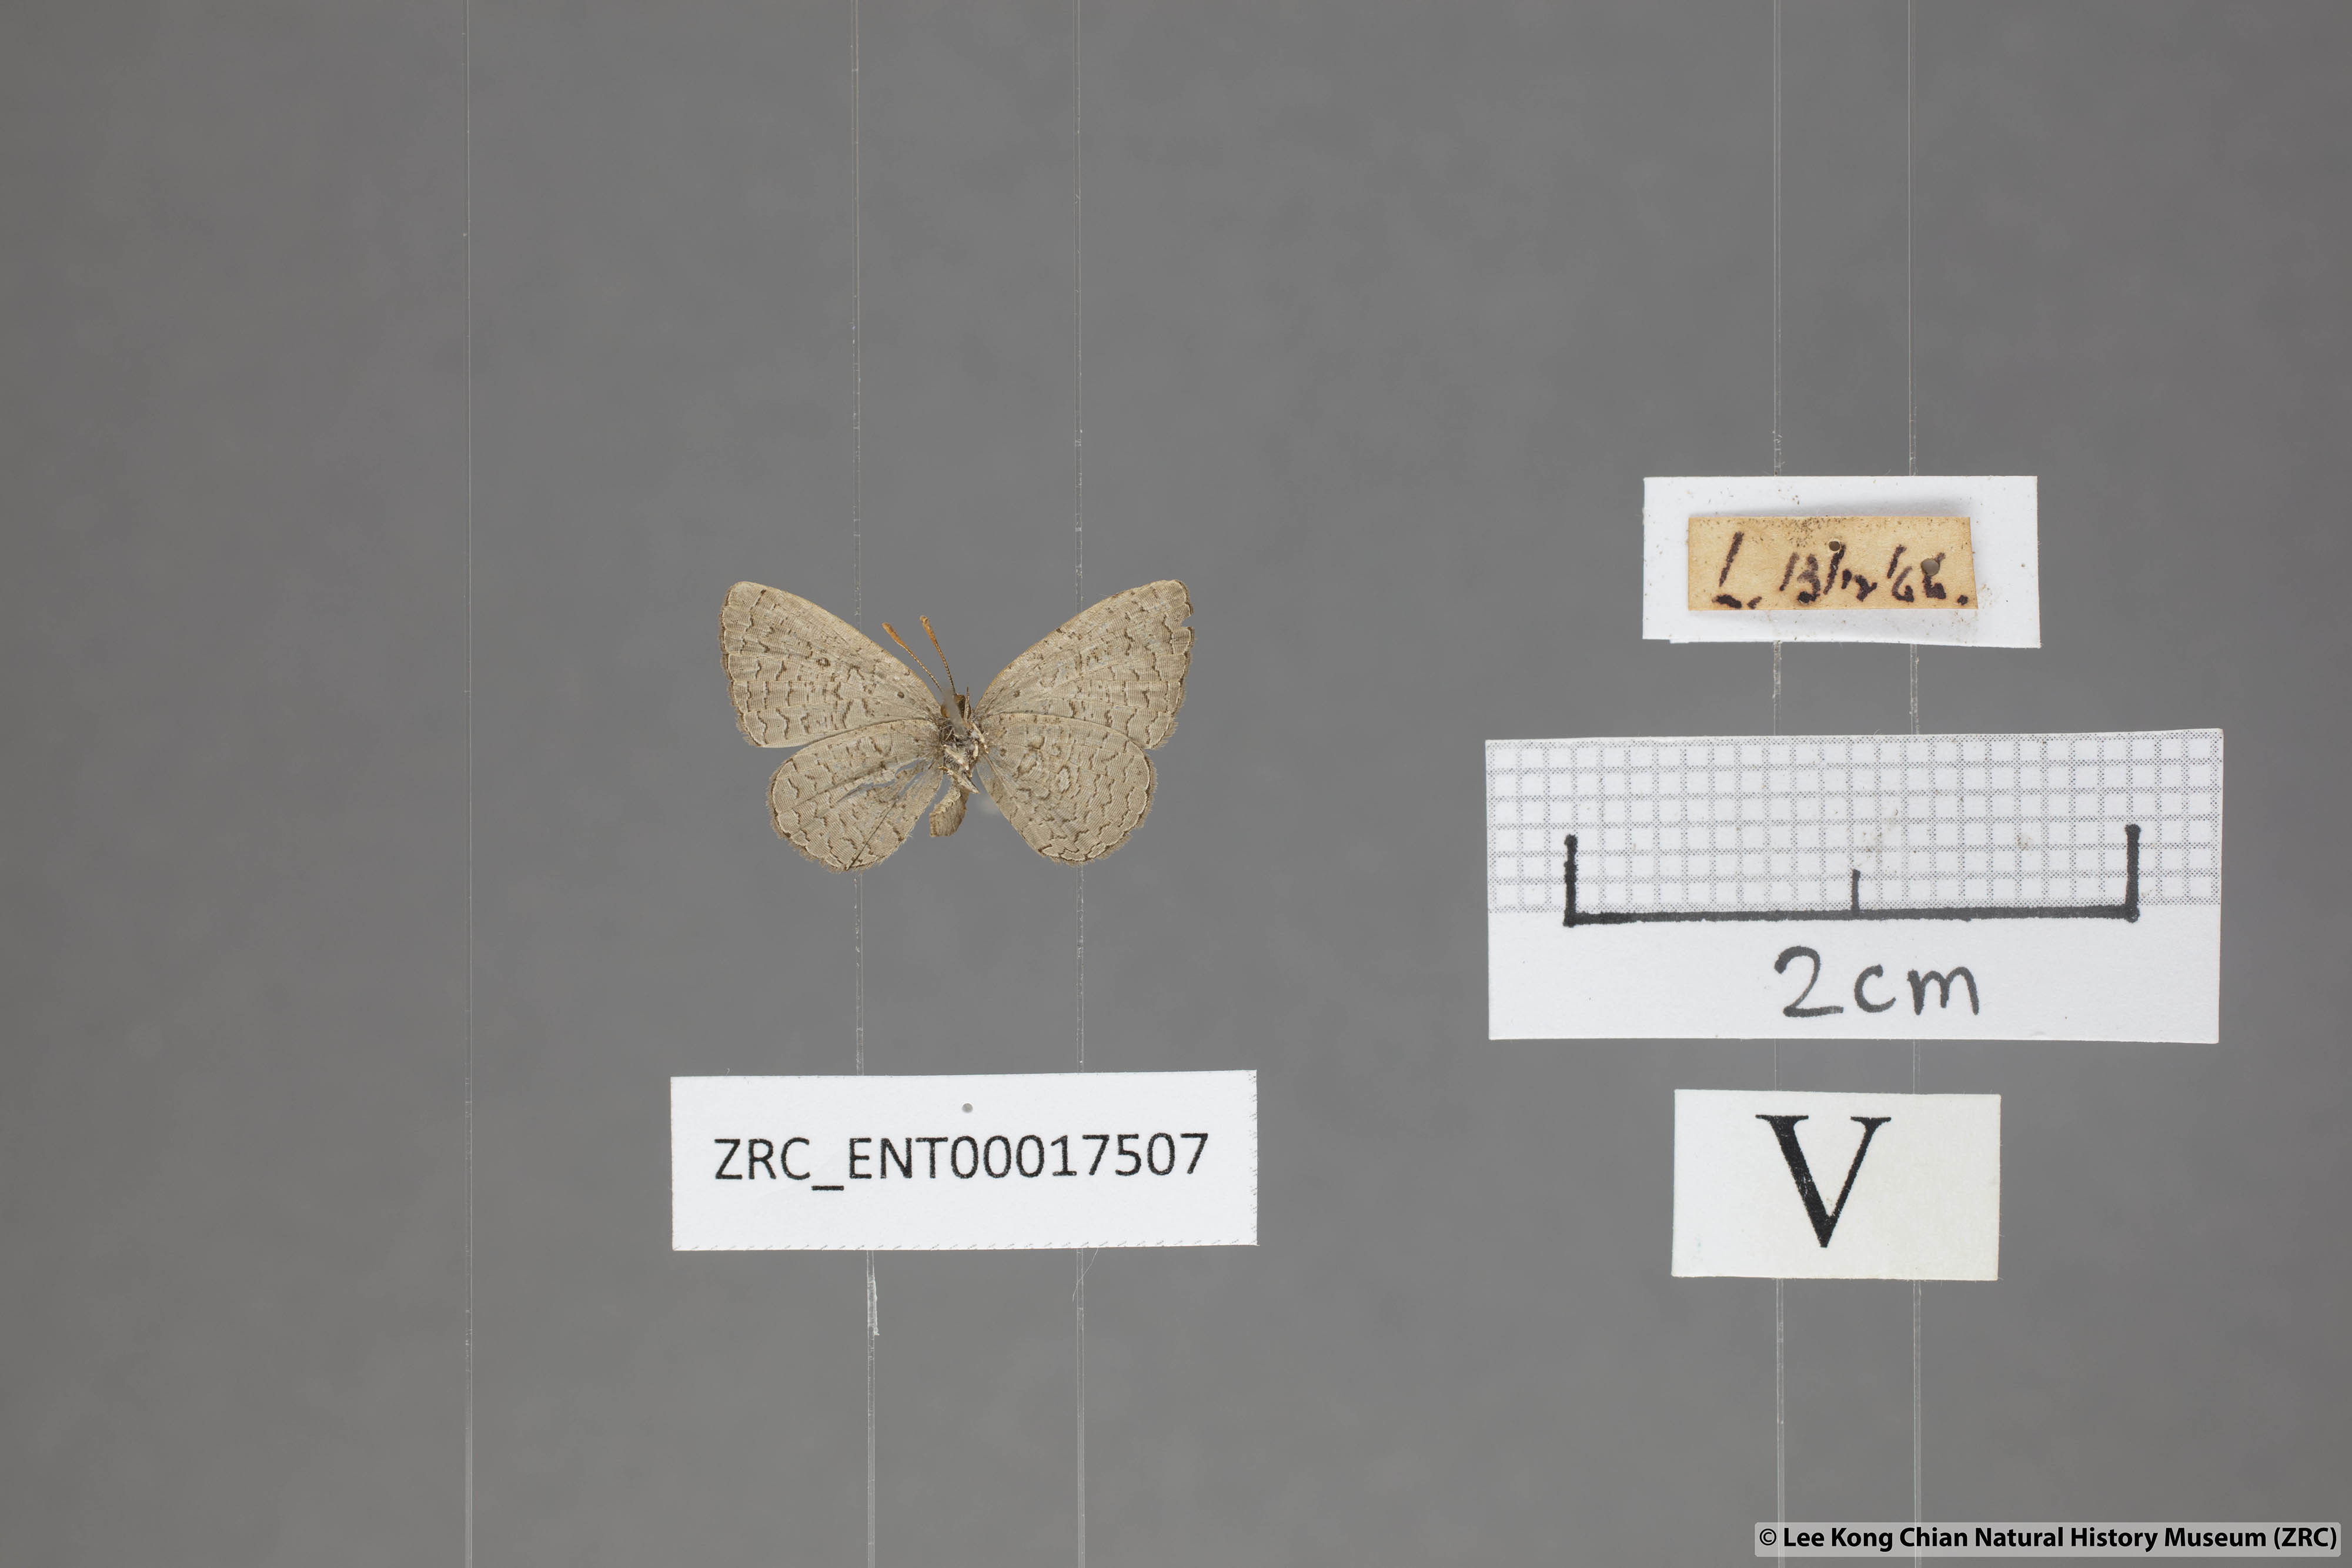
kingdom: Animalia
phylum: Arthropoda
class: Insecta
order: Lepidoptera
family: Lycaenidae
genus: Spalgis
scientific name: Spalgis epeus
